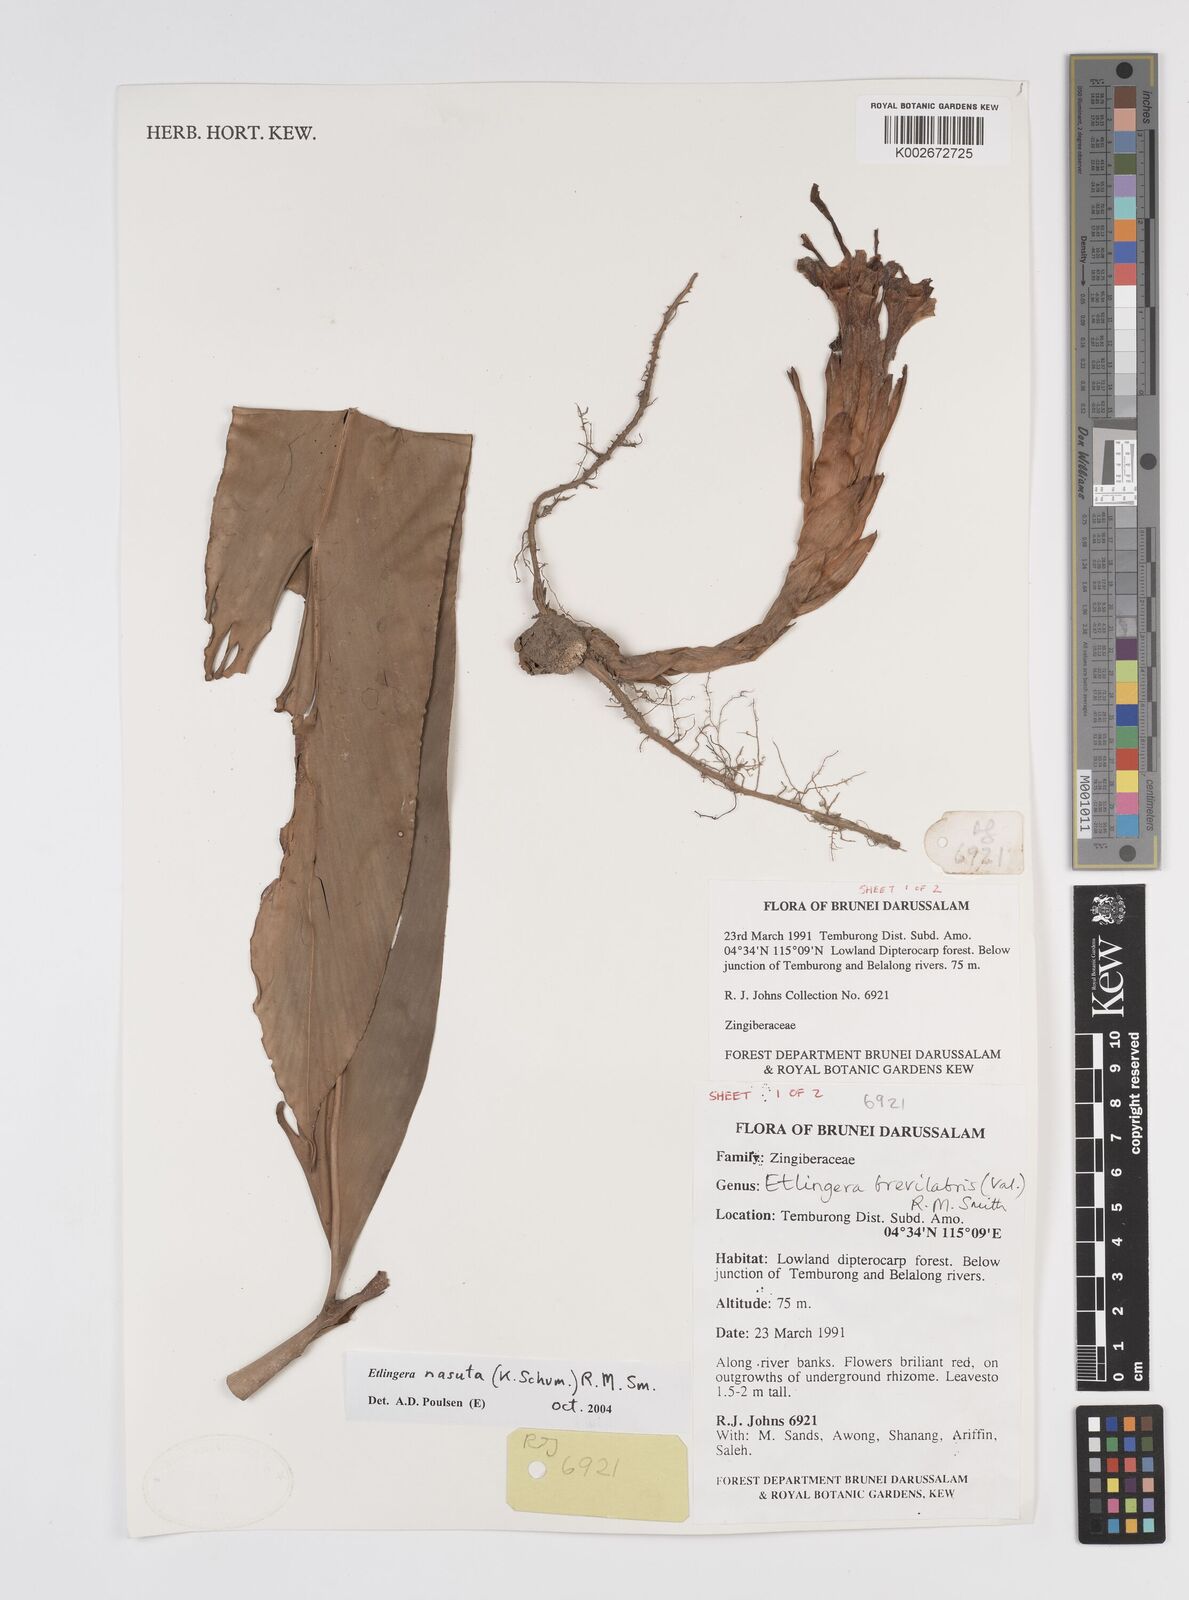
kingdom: Plantae
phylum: Tracheophyta
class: Liliopsida
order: Zingiberales
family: Zingiberaceae
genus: Etlingera
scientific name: Etlingera nasuta
